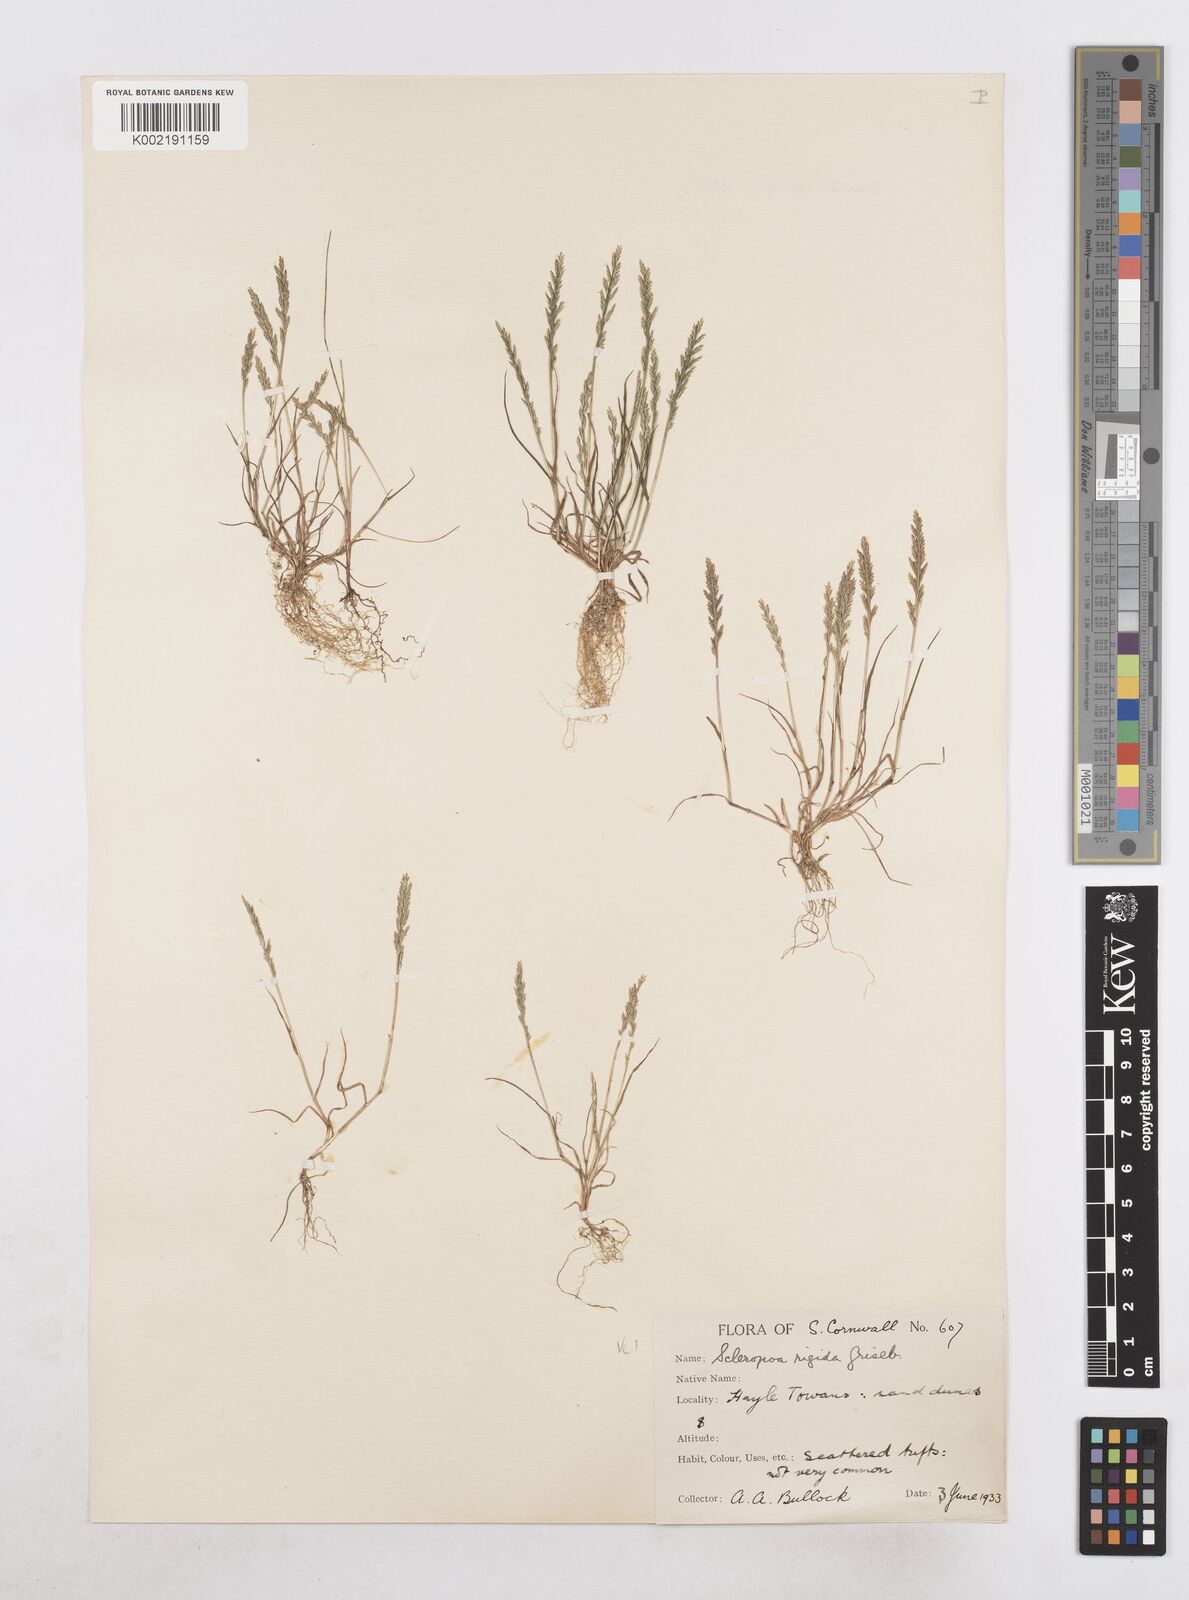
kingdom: Plantae
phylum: Tracheophyta
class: Liliopsida
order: Poales
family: Poaceae
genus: Catapodium
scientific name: Catapodium rigidum
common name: Fern-grass
